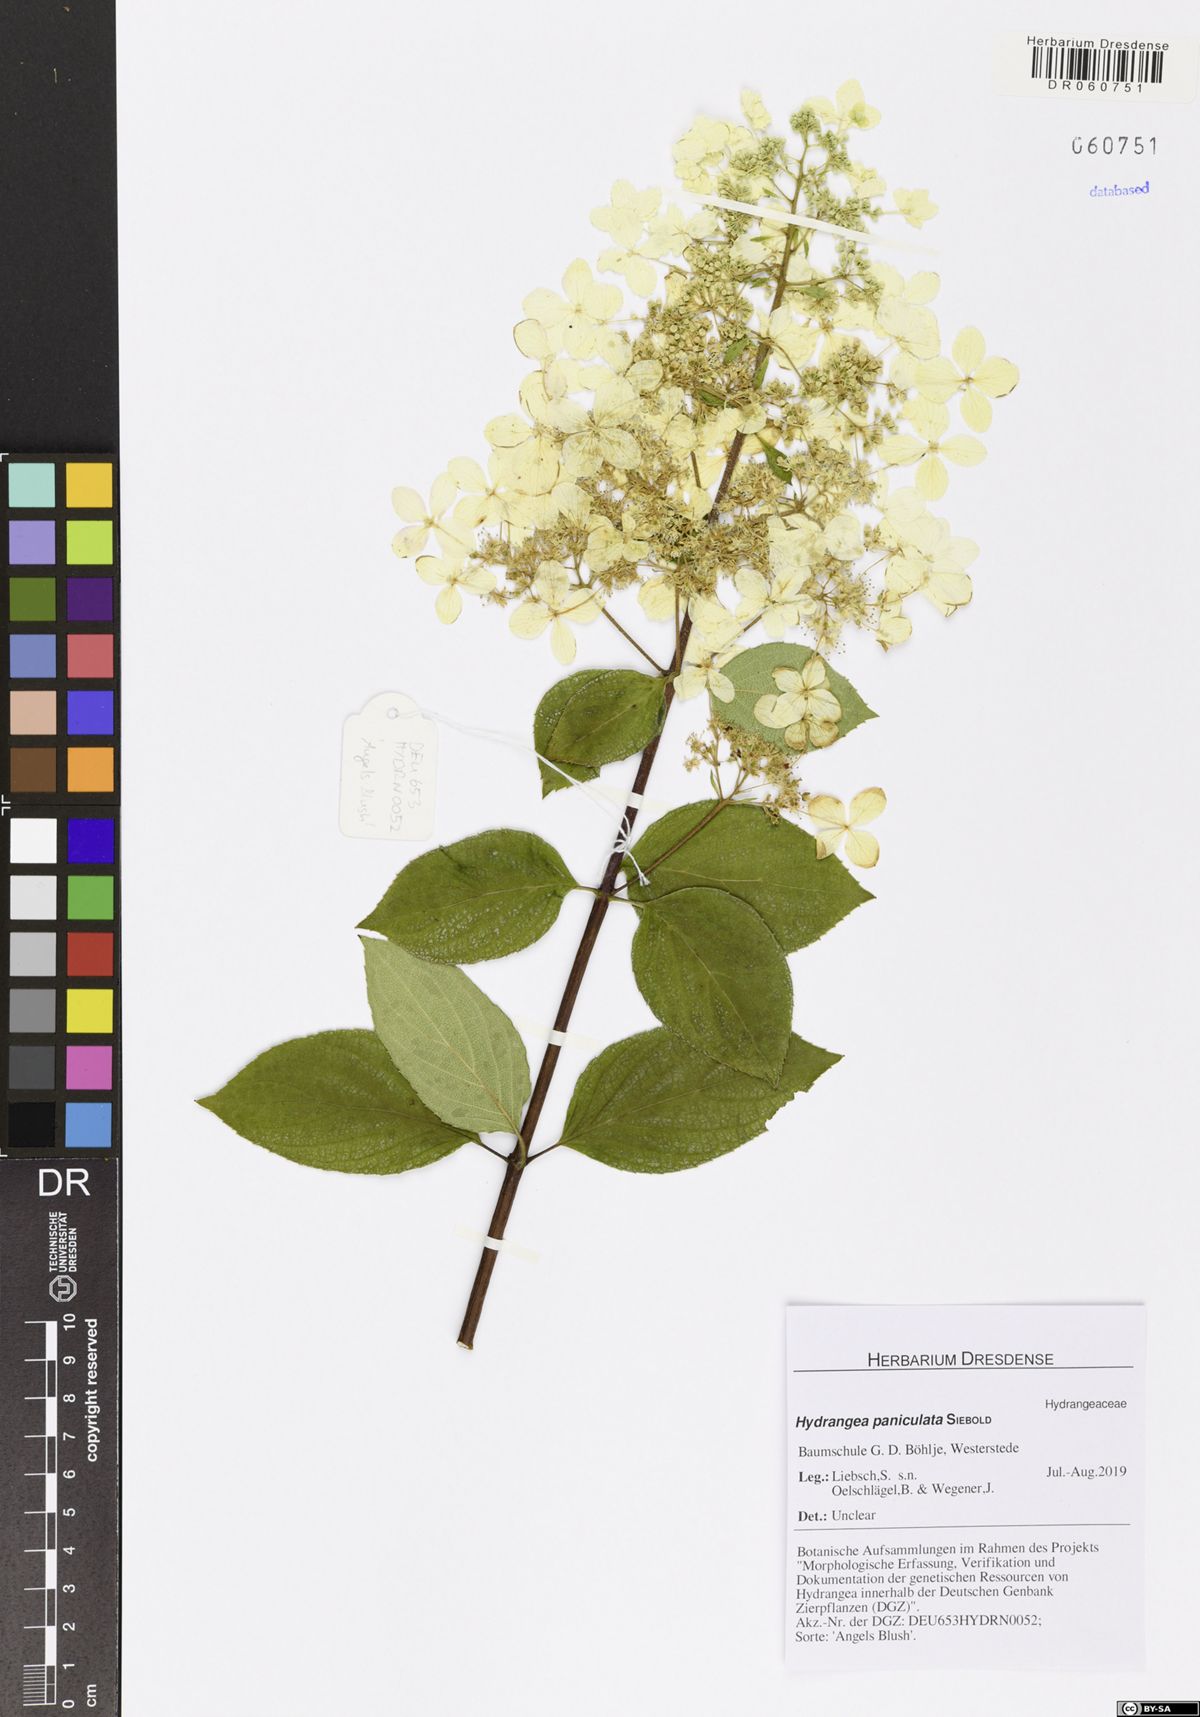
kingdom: Plantae
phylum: Tracheophyta
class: Magnoliopsida
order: Cornales
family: Hydrangeaceae
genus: Hydrangea
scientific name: Hydrangea paniculata
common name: Panicled hydrangea
